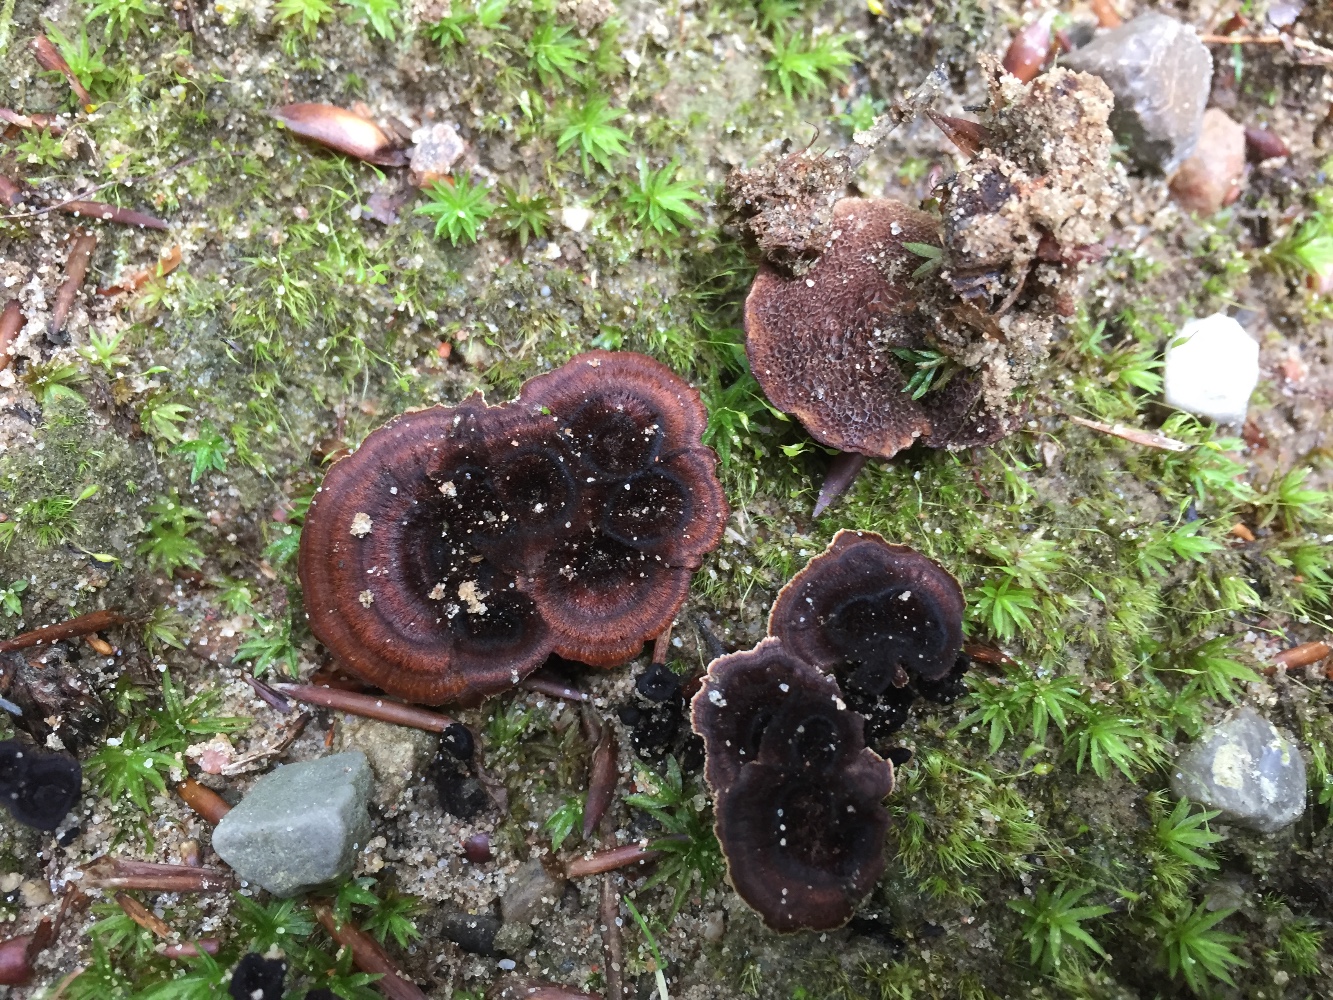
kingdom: Fungi
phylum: Basidiomycota
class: Agaricomycetes
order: Hymenochaetales
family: Hymenochaetaceae
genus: Coltricia
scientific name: Coltricia perennis
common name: almindelig sandporesvamp
